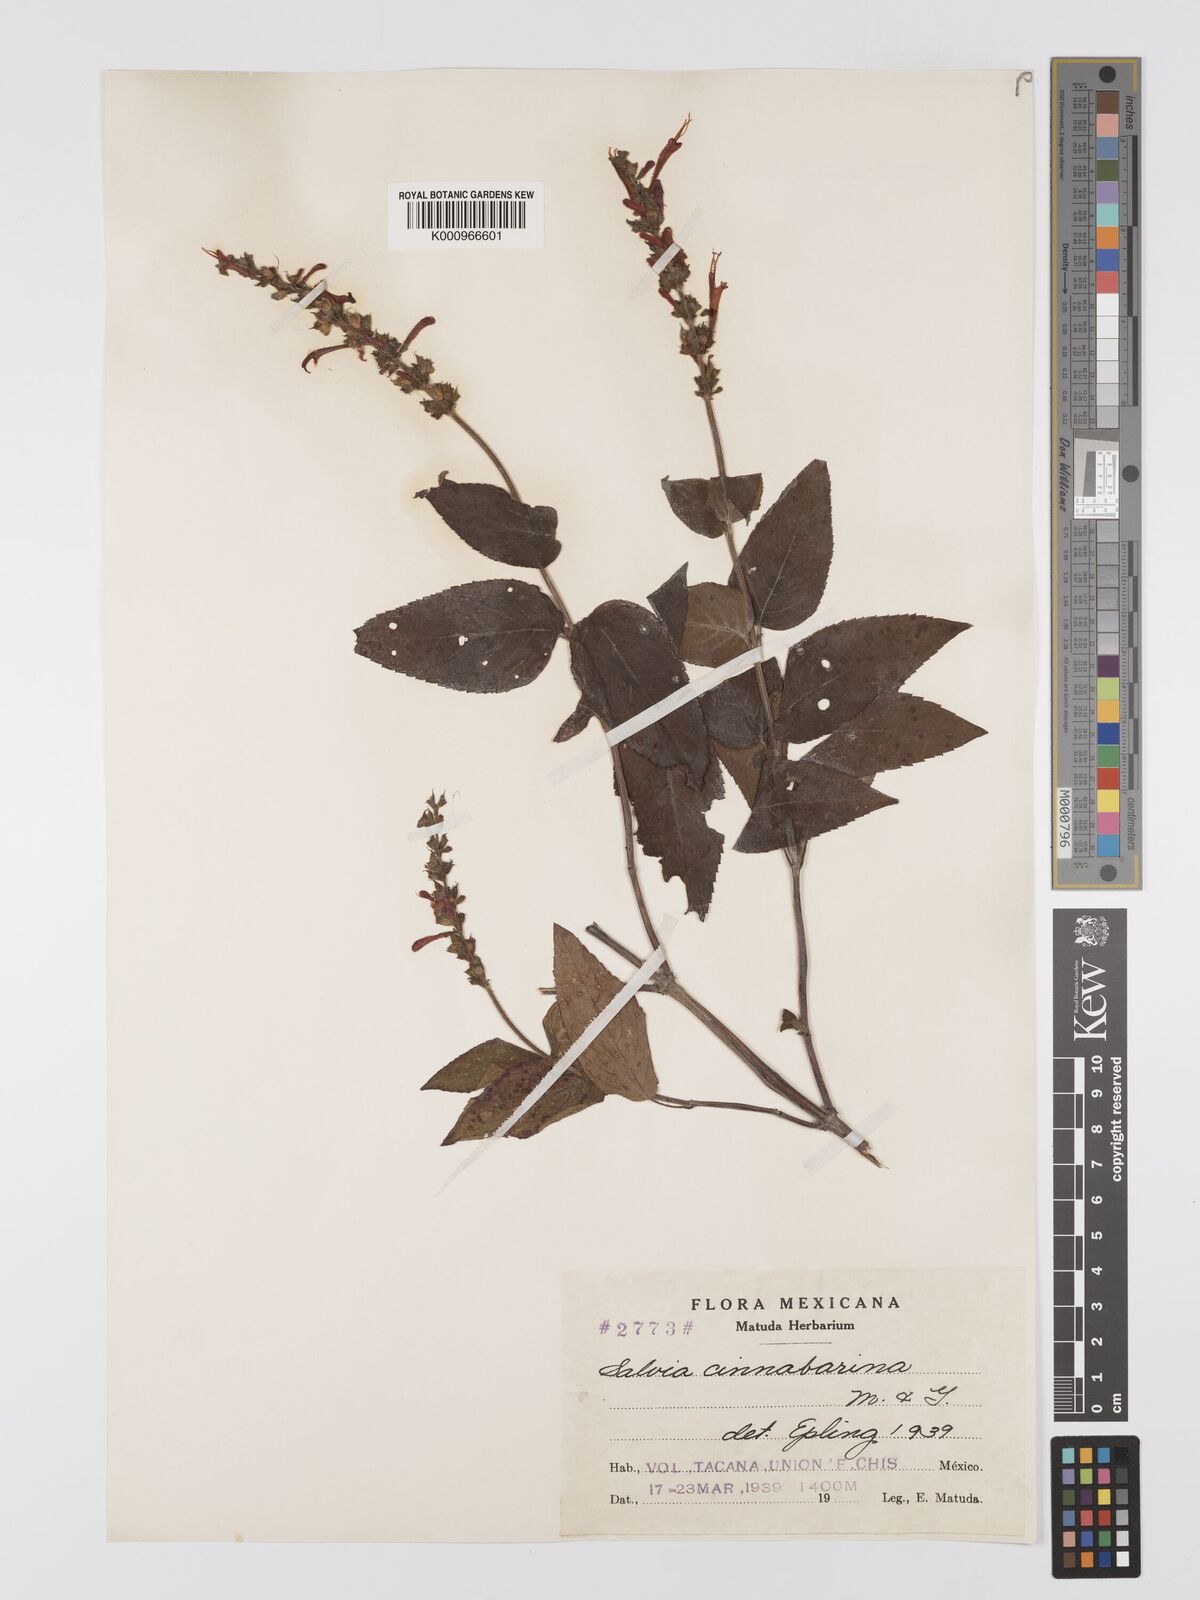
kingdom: Plantae
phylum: Tracheophyta
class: Magnoliopsida
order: Lamiales
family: Lamiaceae
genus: Salvia
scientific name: Salvia cinnabarina
